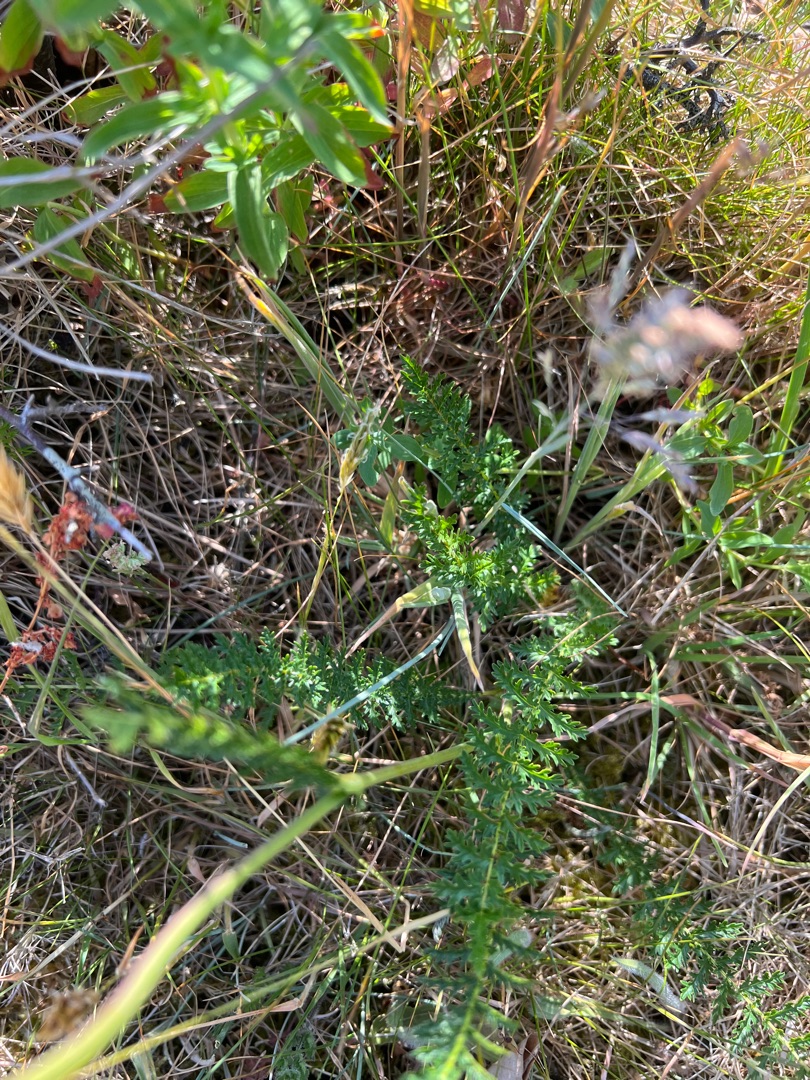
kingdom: Plantae
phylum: Tracheophyta
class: Magnoliopsida
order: Rosales
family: Rosaceae
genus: Filipendula
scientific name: Filipendula vulgaris
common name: Knoldet mjødurt
